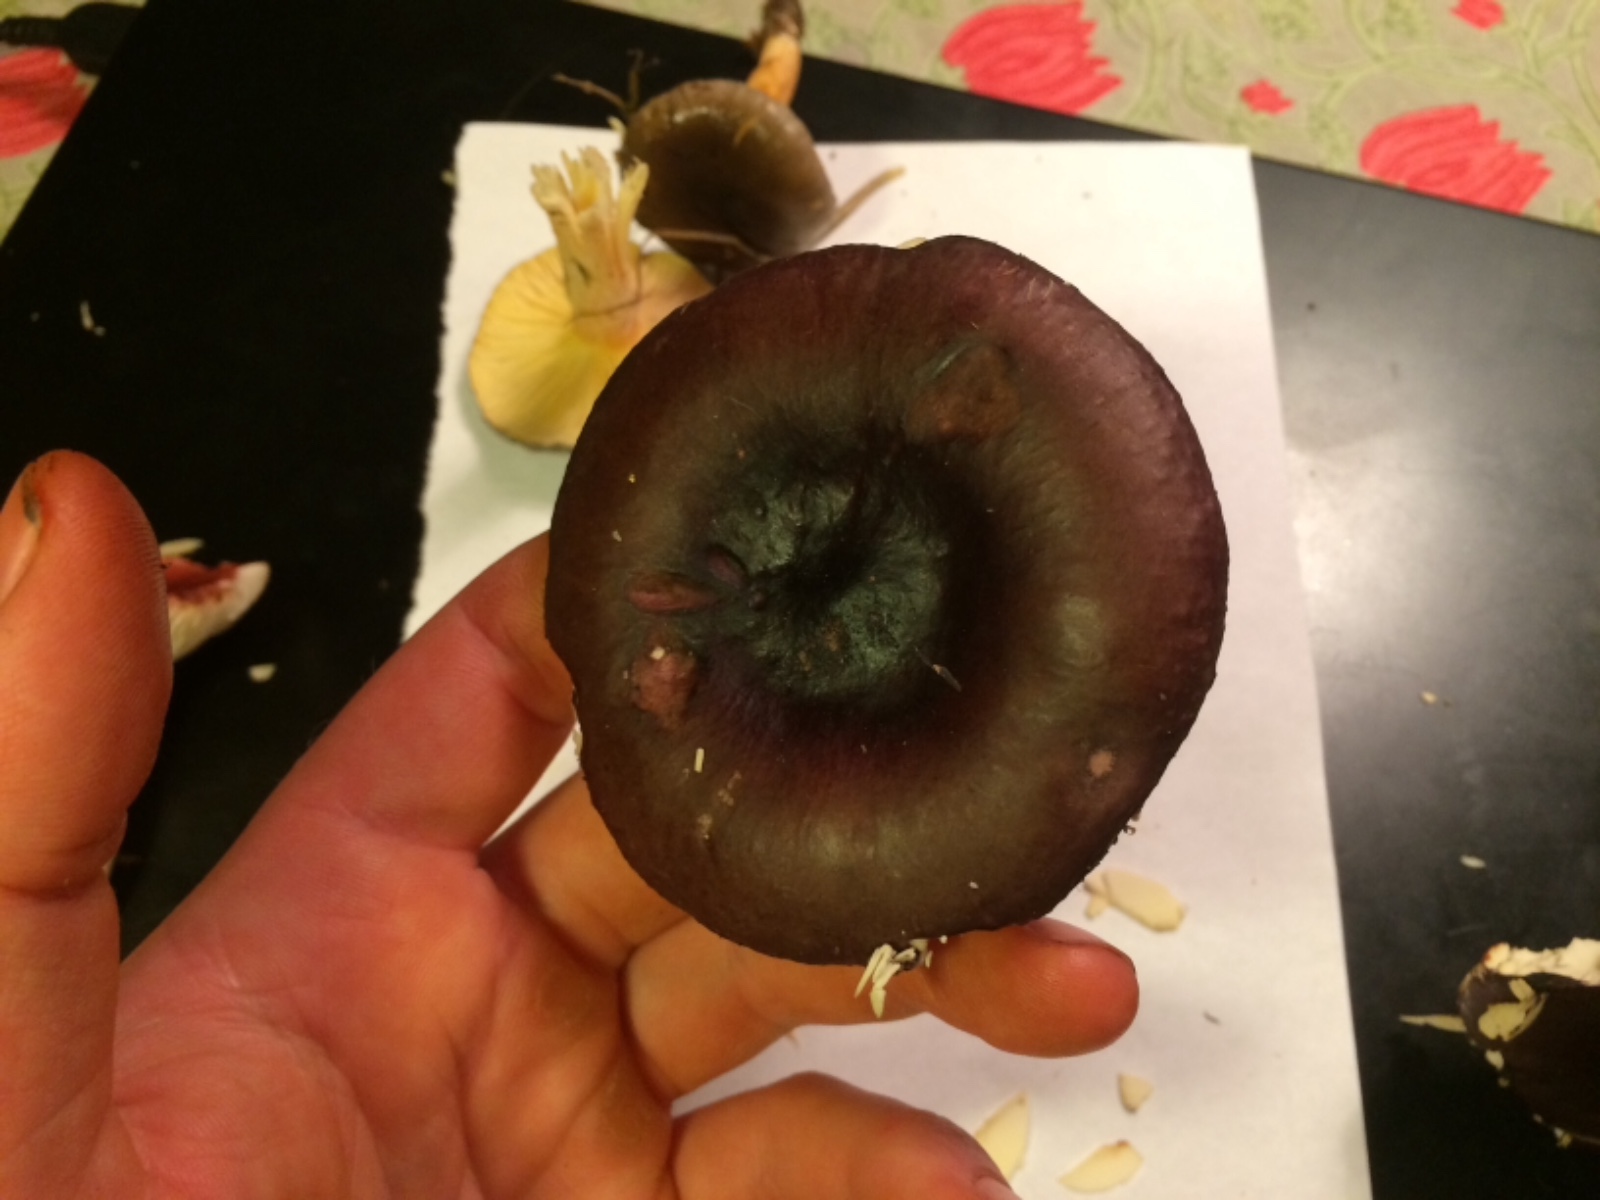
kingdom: Fungi
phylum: Basidiomycota
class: Agaricomycetes
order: Russulales
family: Russulaceae
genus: Russula
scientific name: Russula caerulea
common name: puklet skørhat
